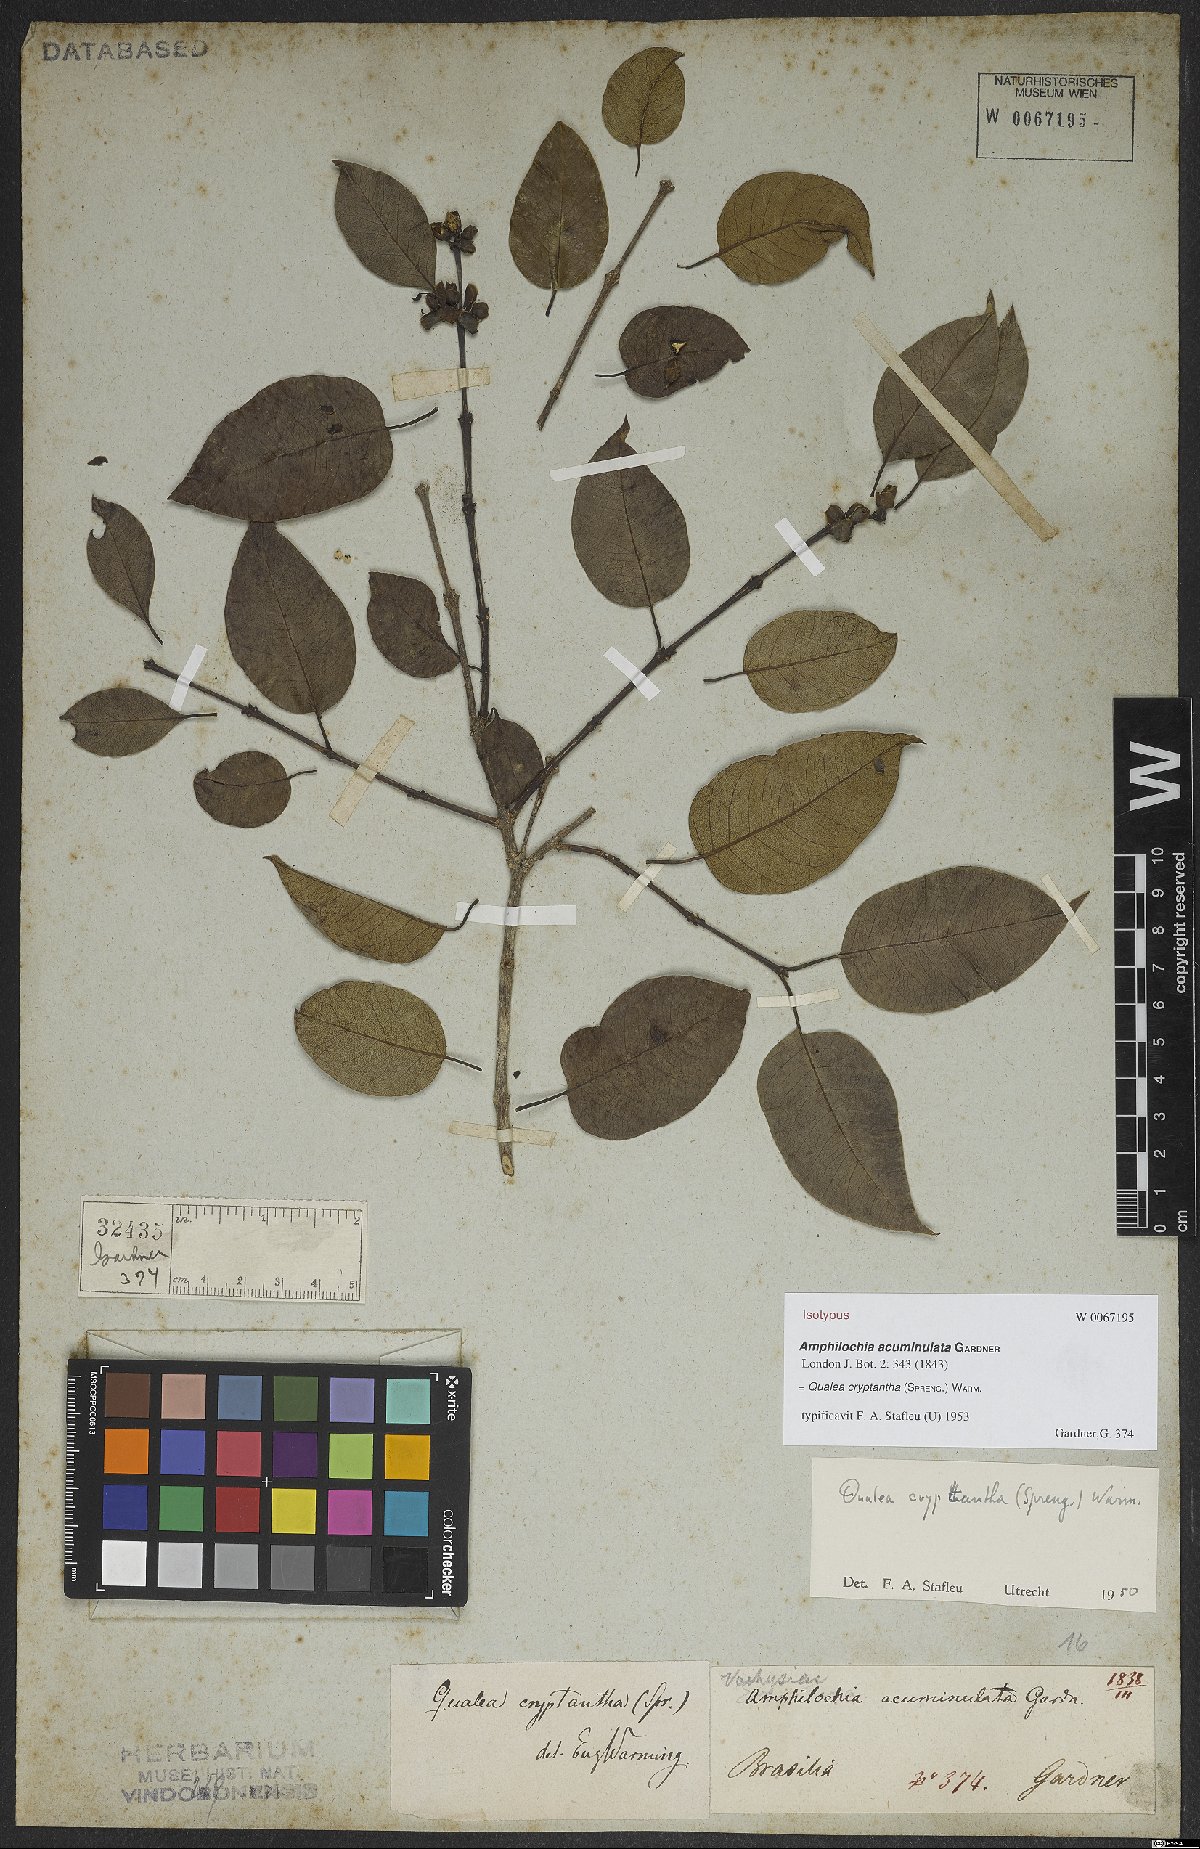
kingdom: Plantae
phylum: Tracheophyta
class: Magnoliopsida
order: Myrtales
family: Vochysiaceae
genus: Qualea
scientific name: Qualea cryptantha
